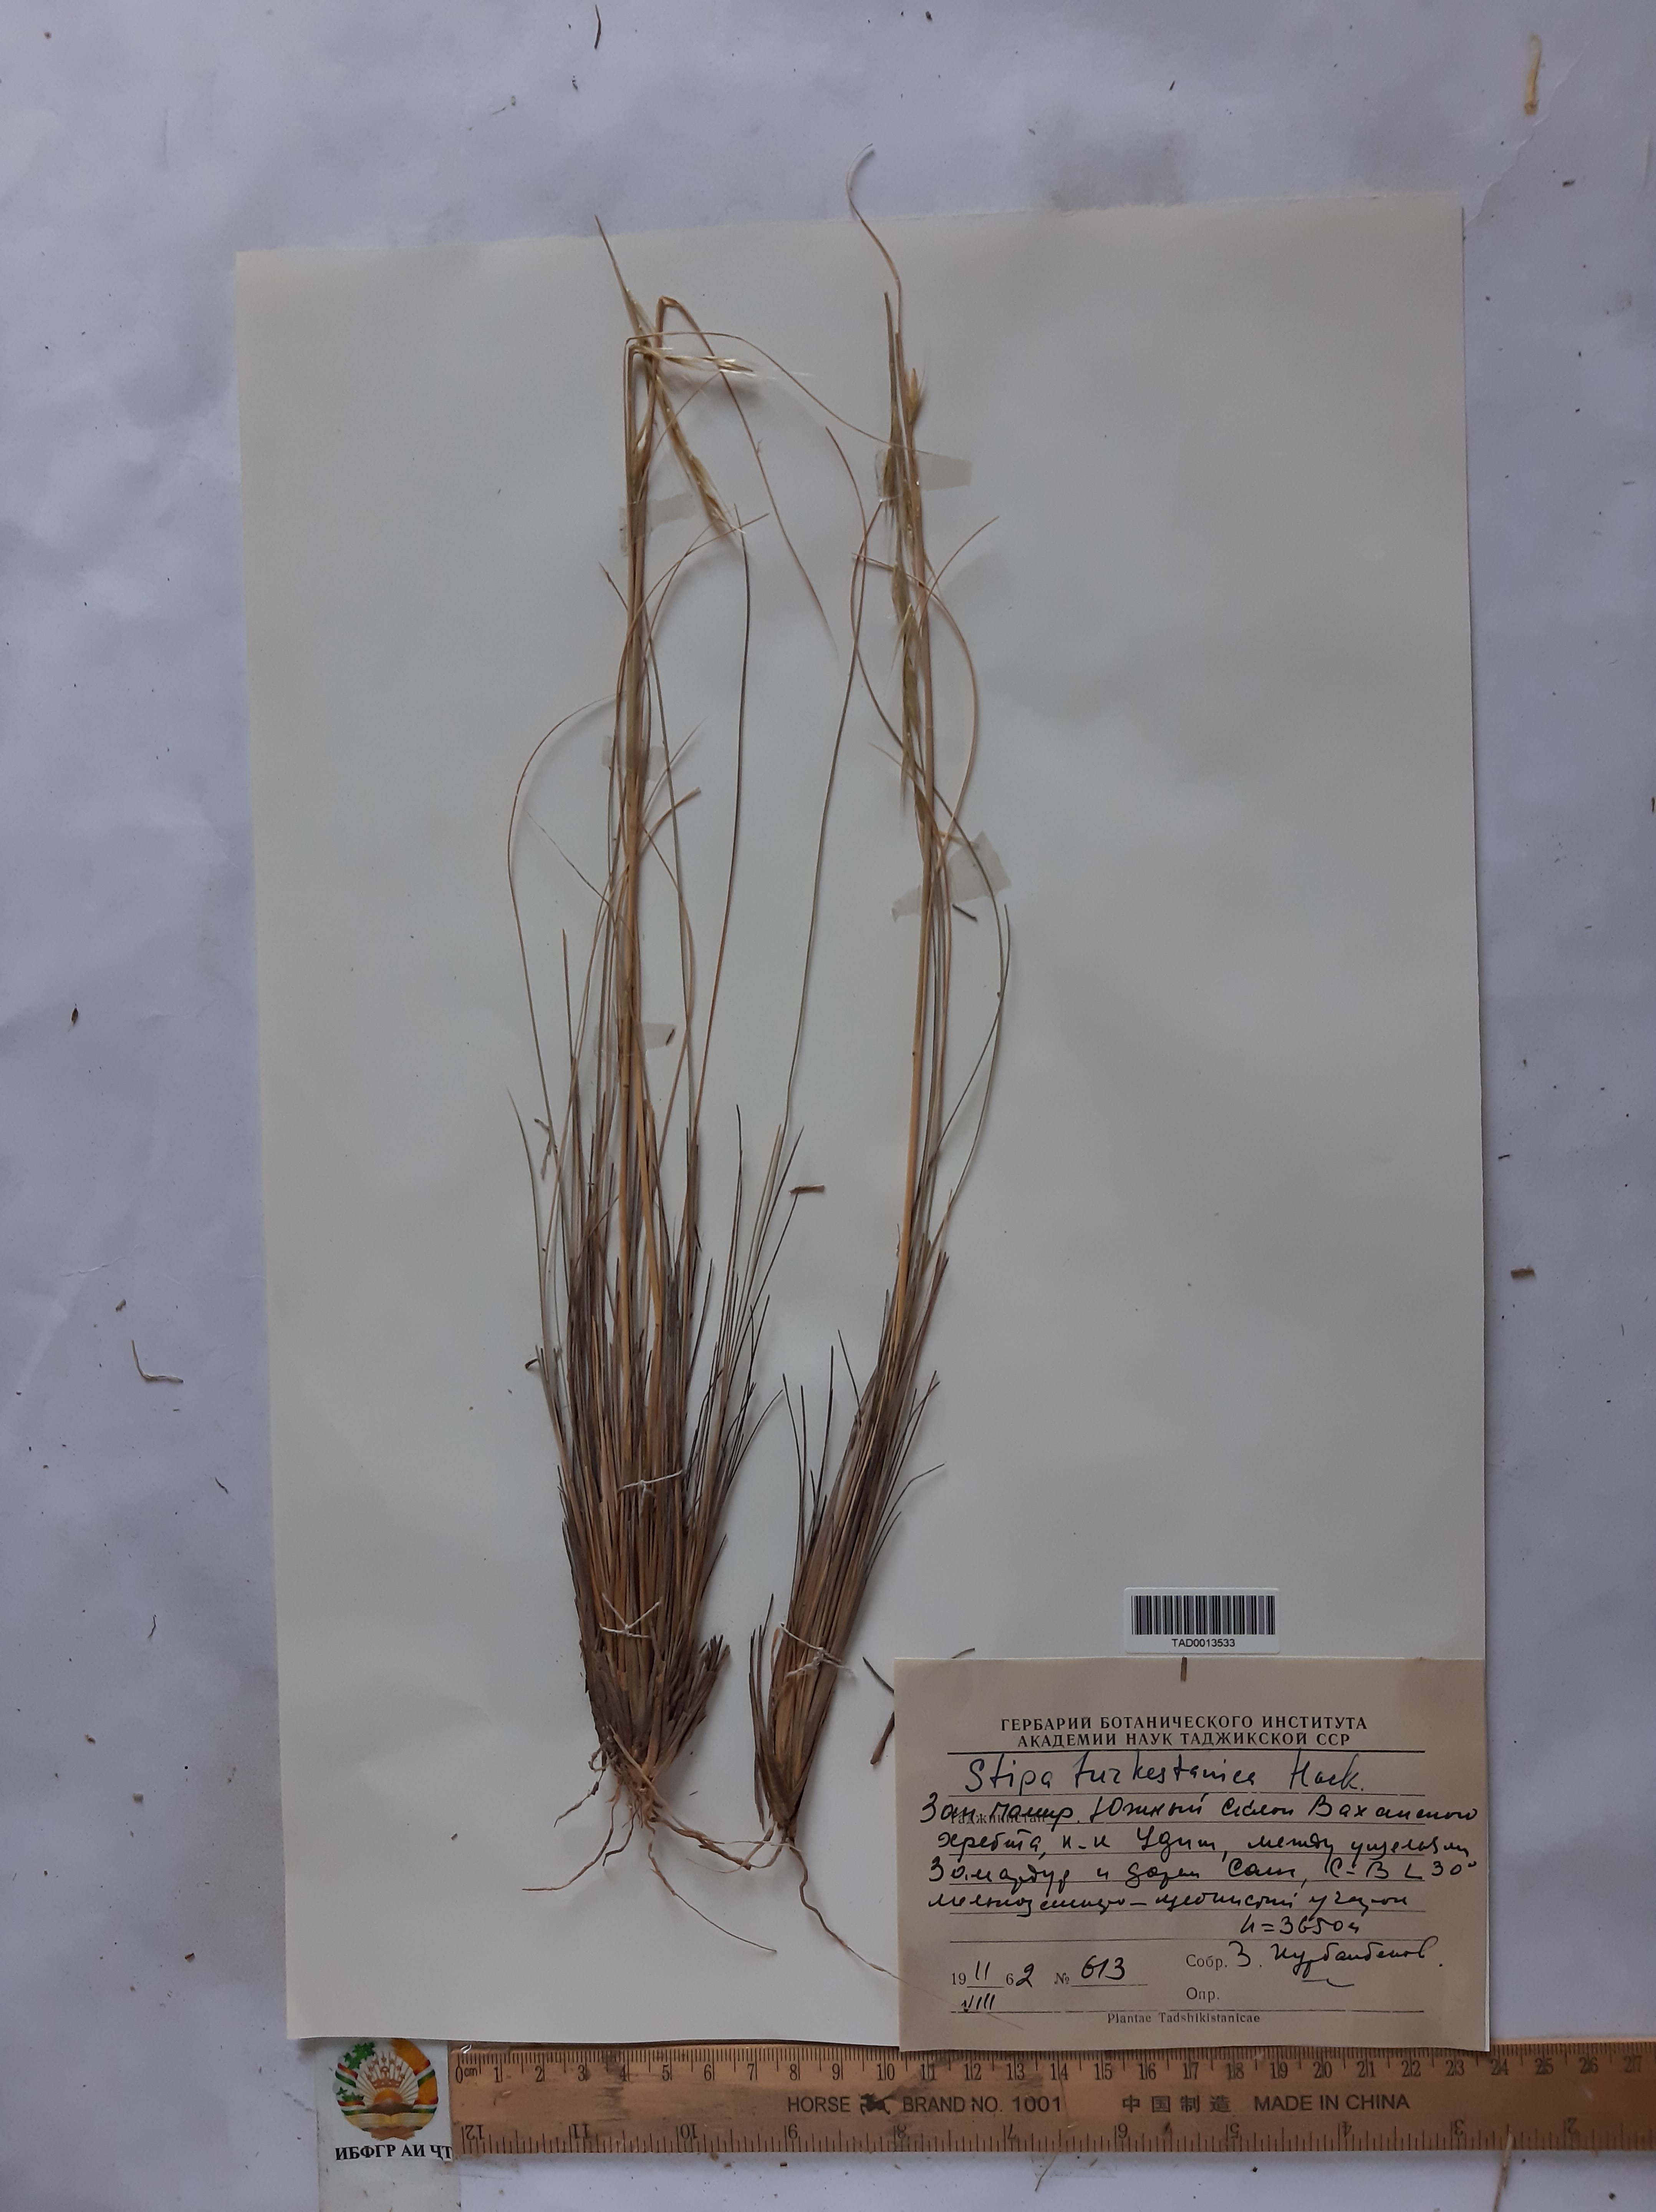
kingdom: Plantae
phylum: Tracheophyta
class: Liliopsida
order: Poales
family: Poaceae
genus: Stipa
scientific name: Stipa turkestanica
